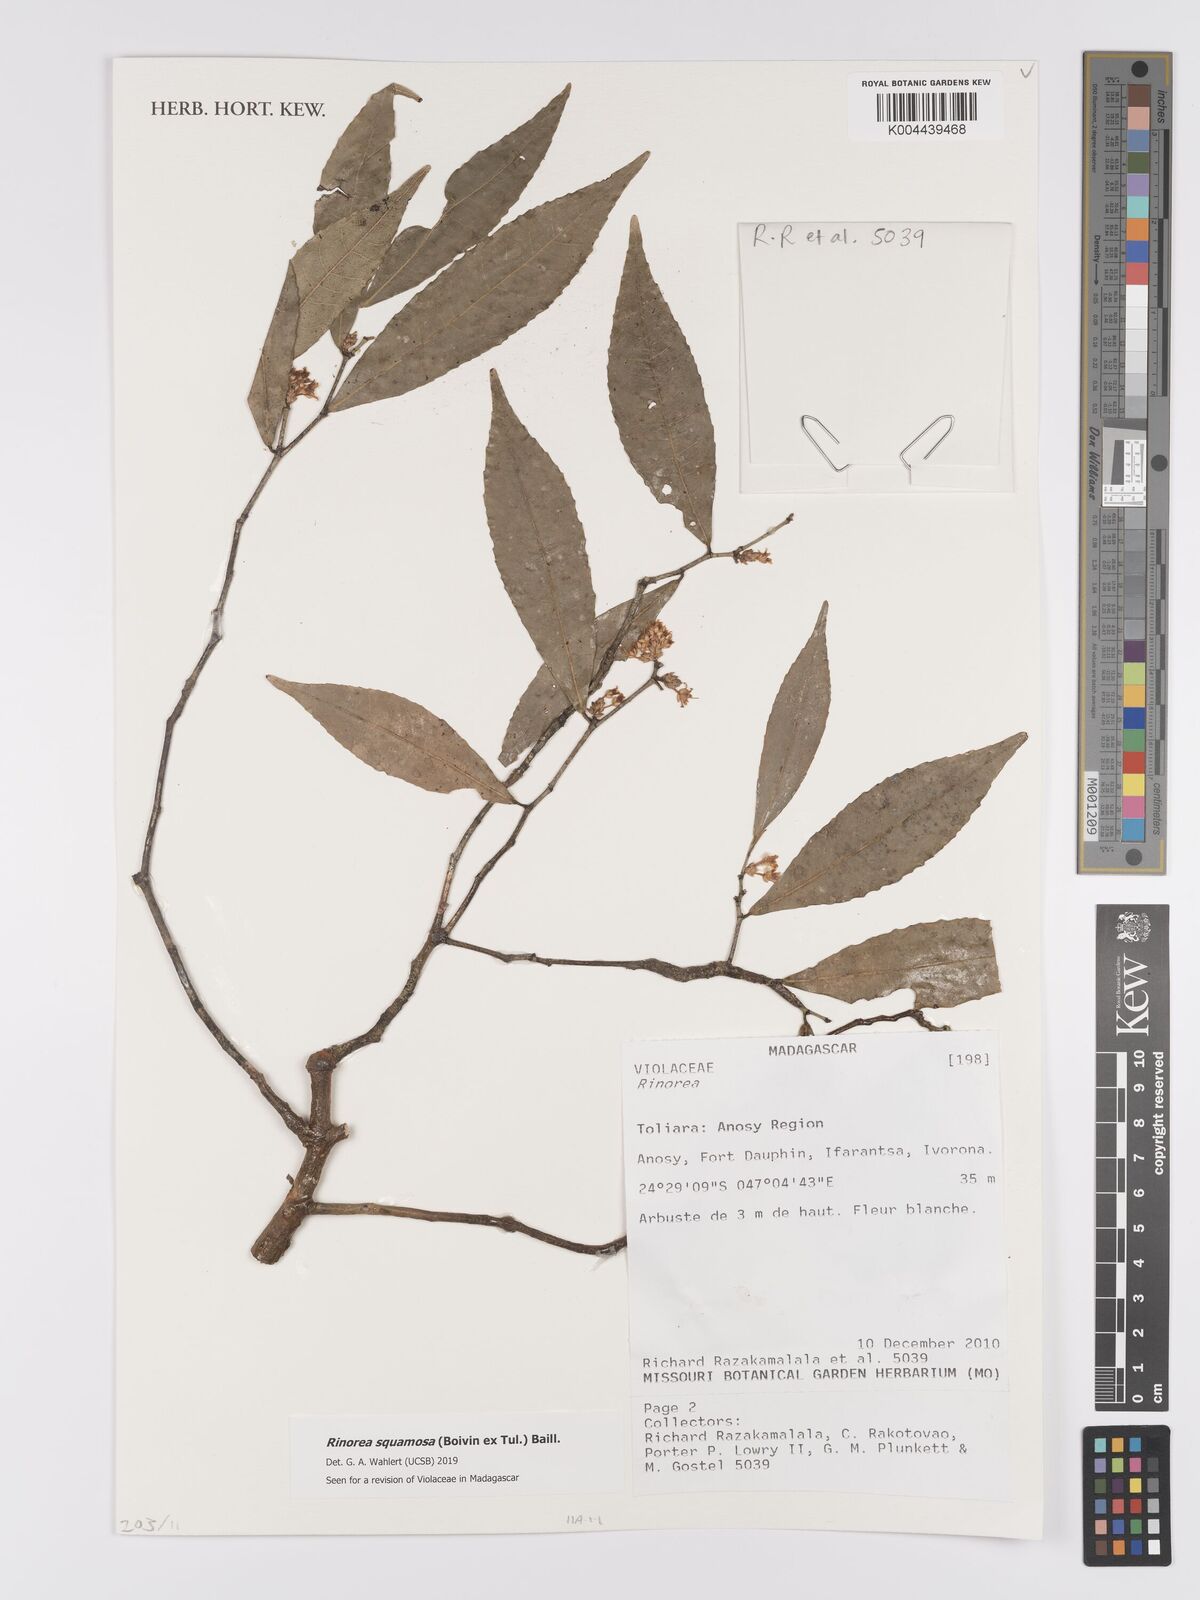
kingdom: Plantae
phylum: Tracheophyta
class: Magnoliopsida
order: Malpighiales
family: Violaceae
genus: Rinorea
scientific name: Rinorea squamosa
